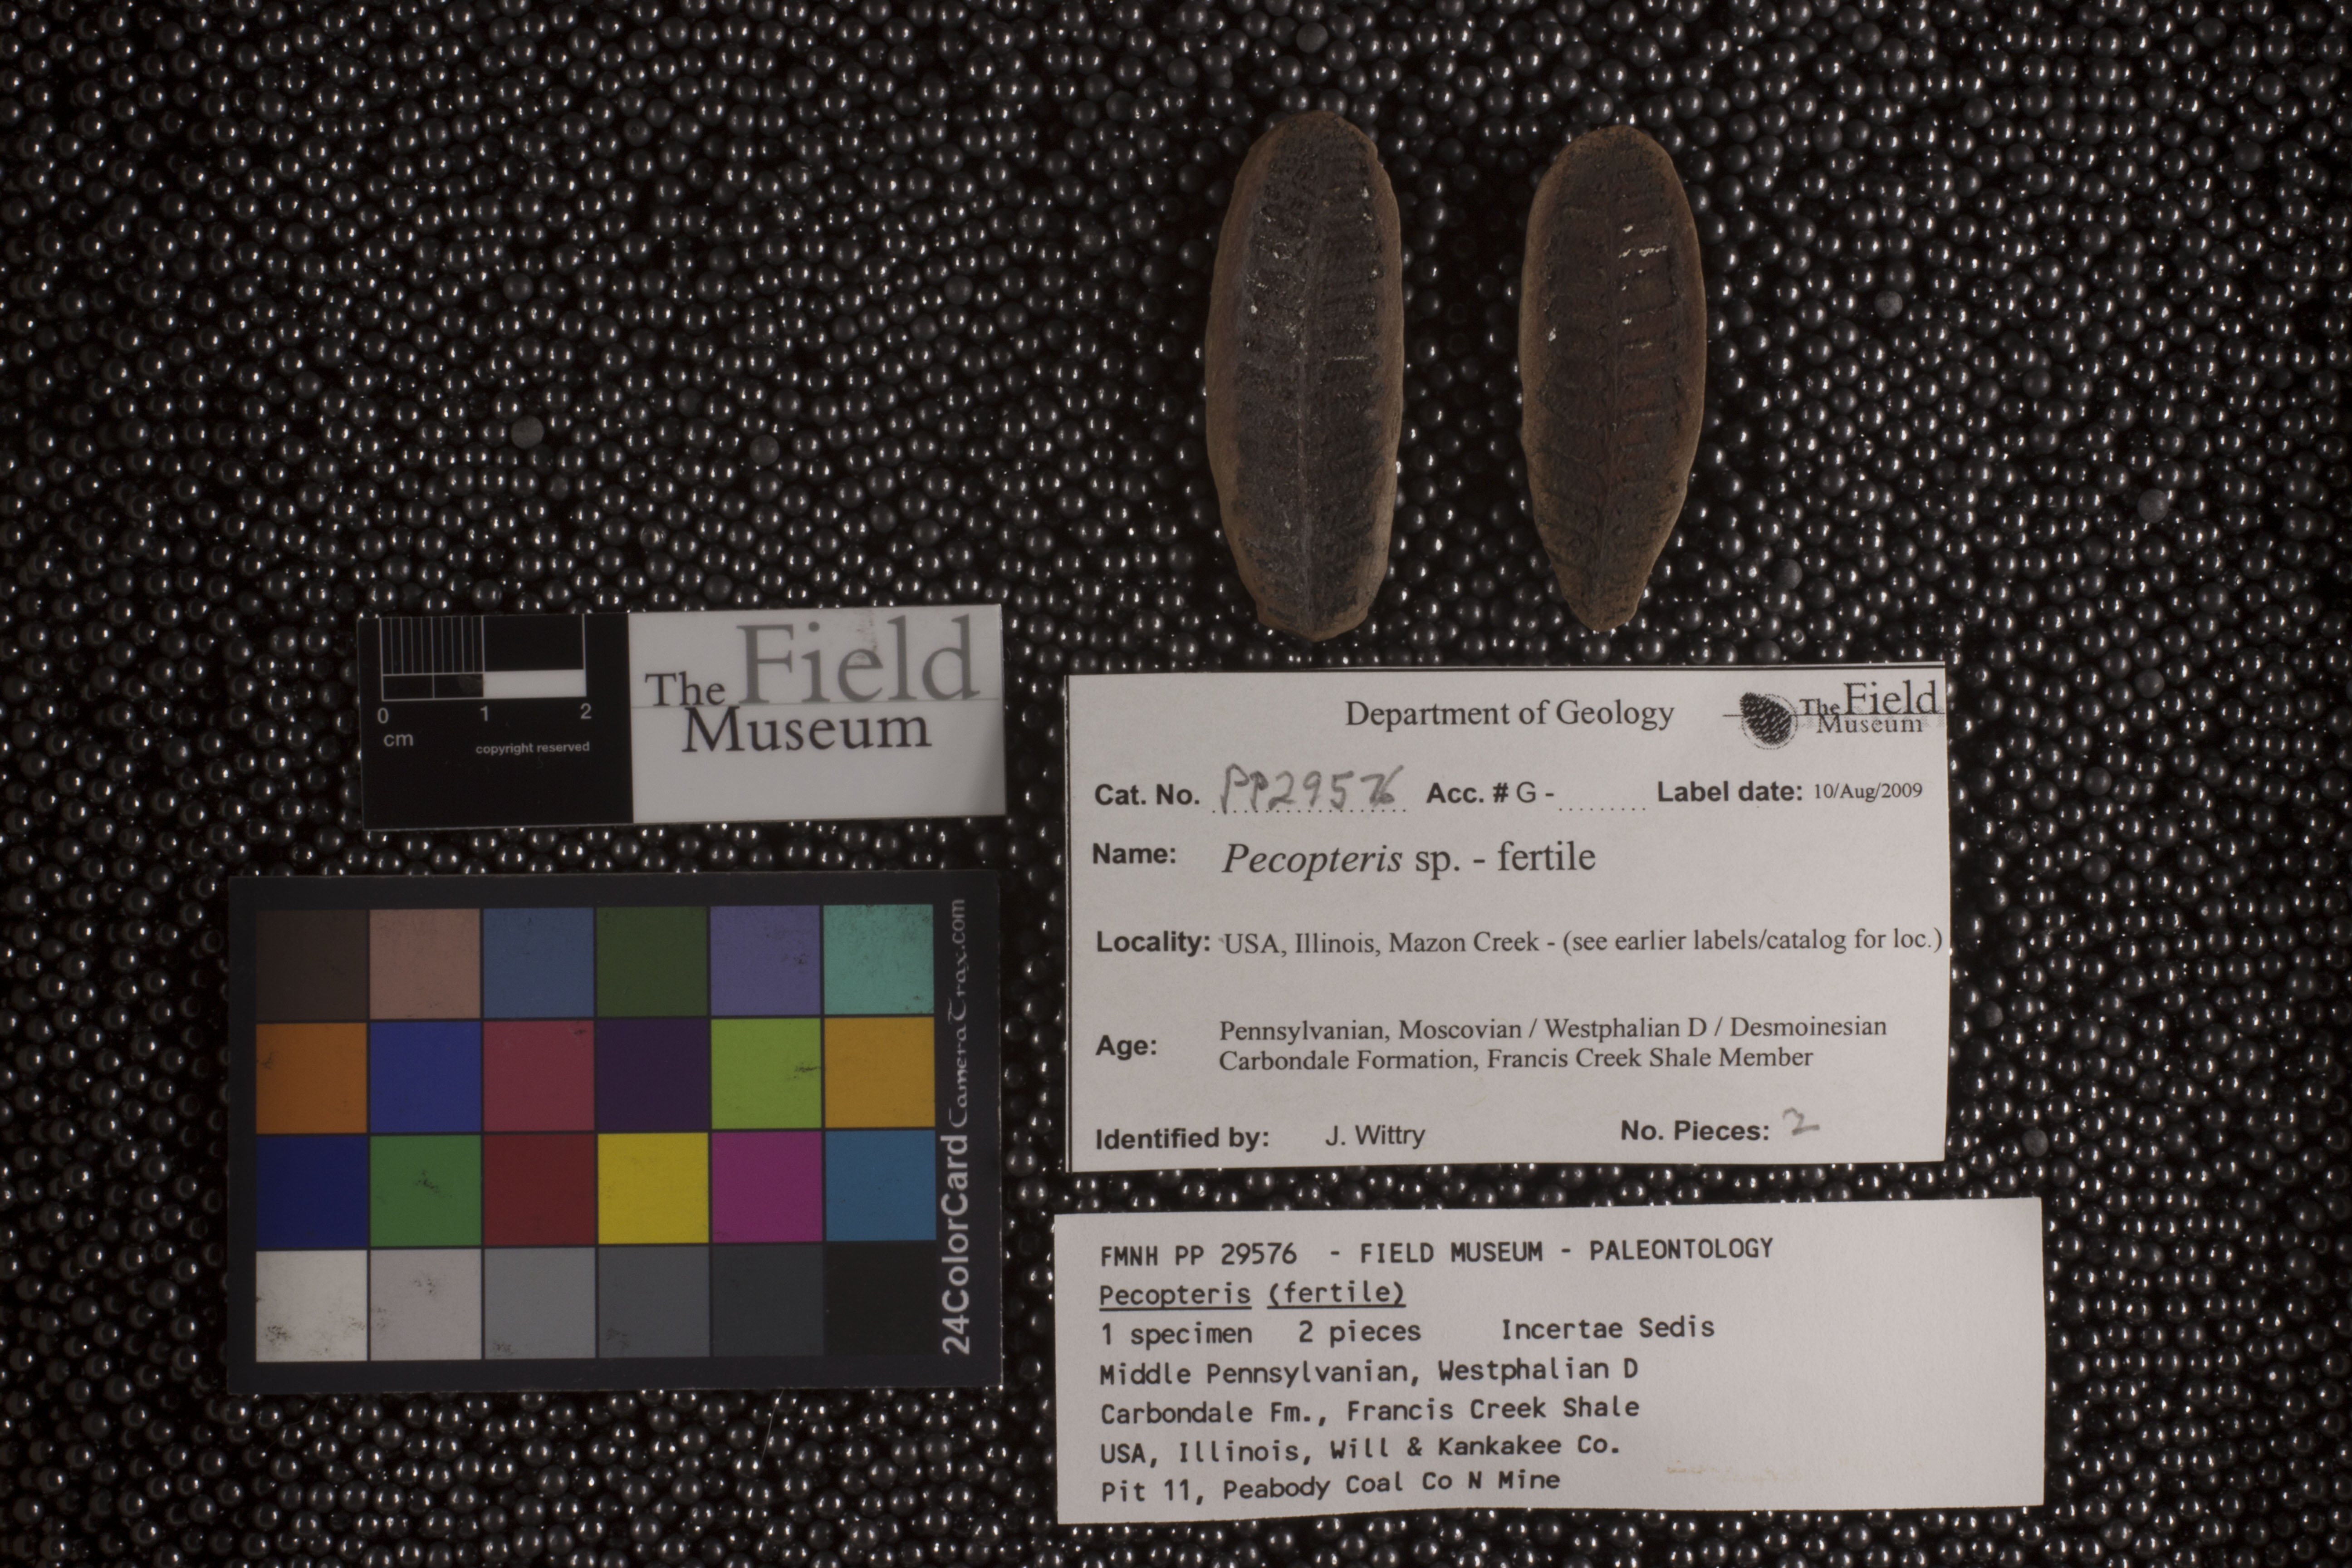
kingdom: Plantae
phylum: Tracheophyta
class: Polypodiopsida
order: Marattiales
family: Asterothecaceae
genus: Pecopteris
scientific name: Pecopteris
